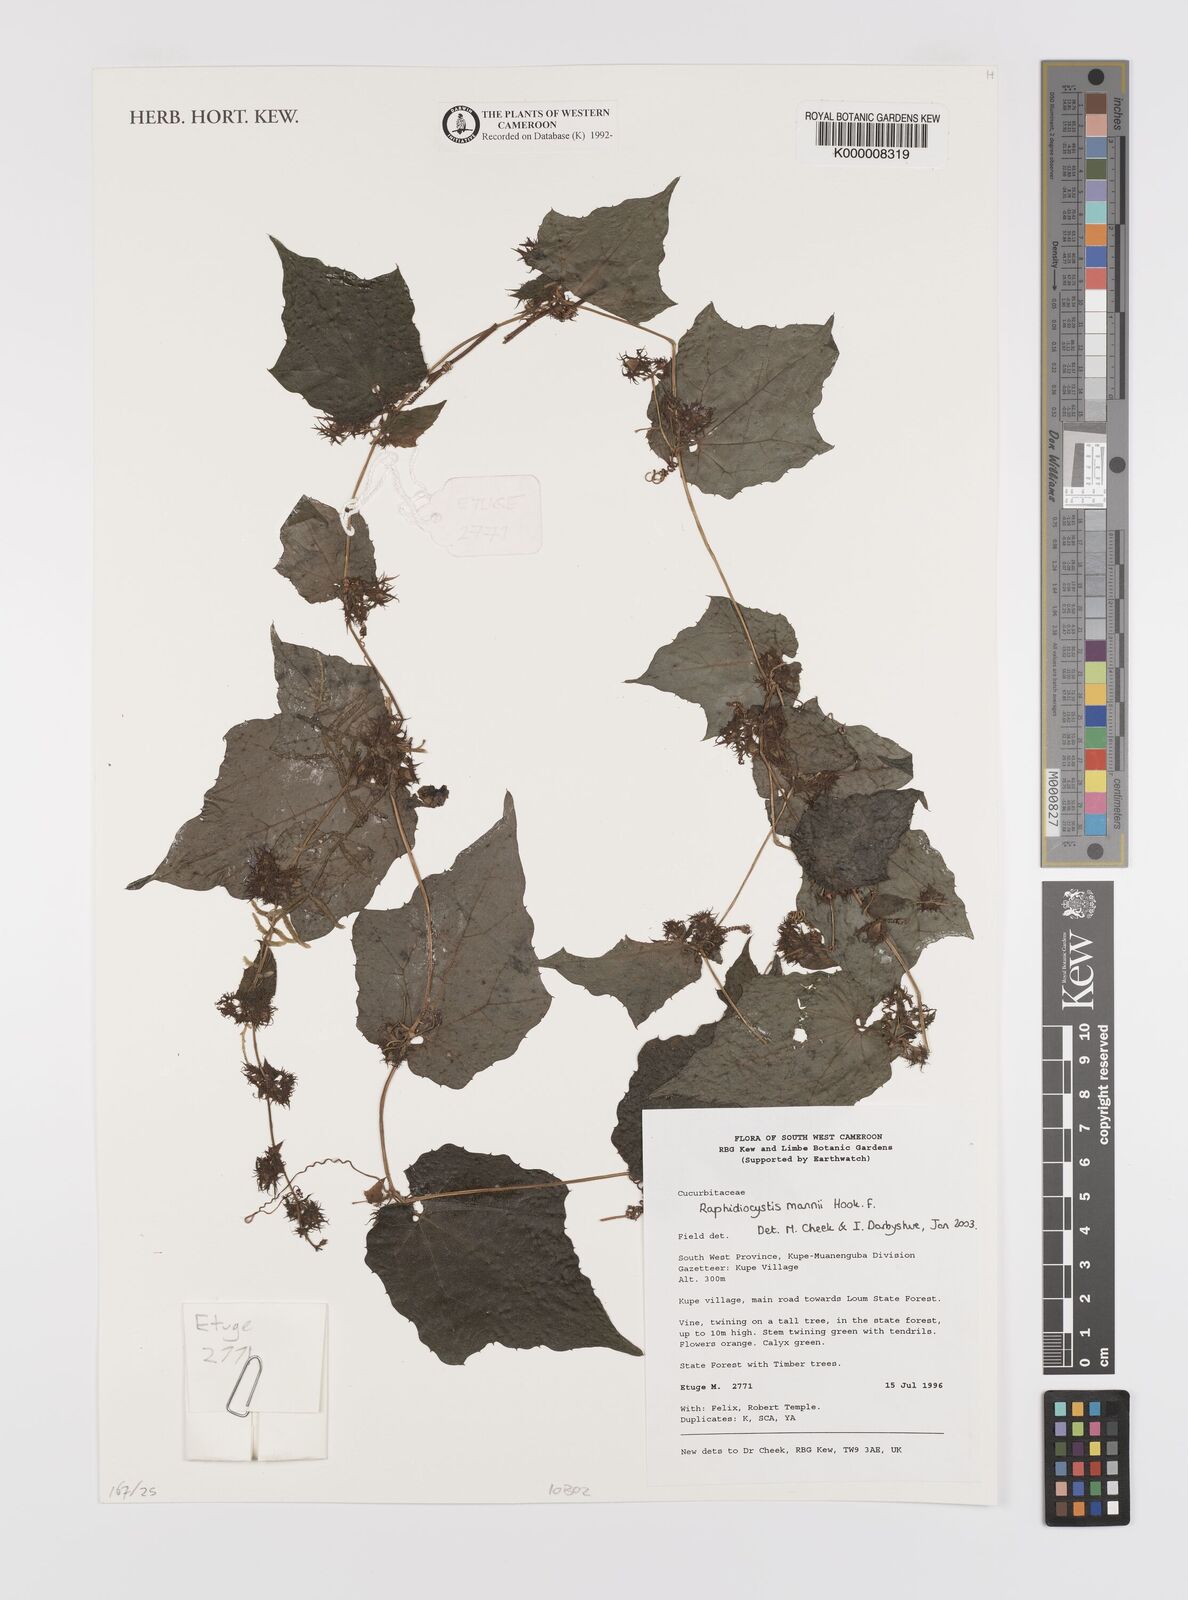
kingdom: Plantae
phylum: Tracheophyta
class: Magnoliopsida
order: Cucurbitales
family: Cucurbitaceae
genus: Raphidiocystis
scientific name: Raphidiocystis mannii
